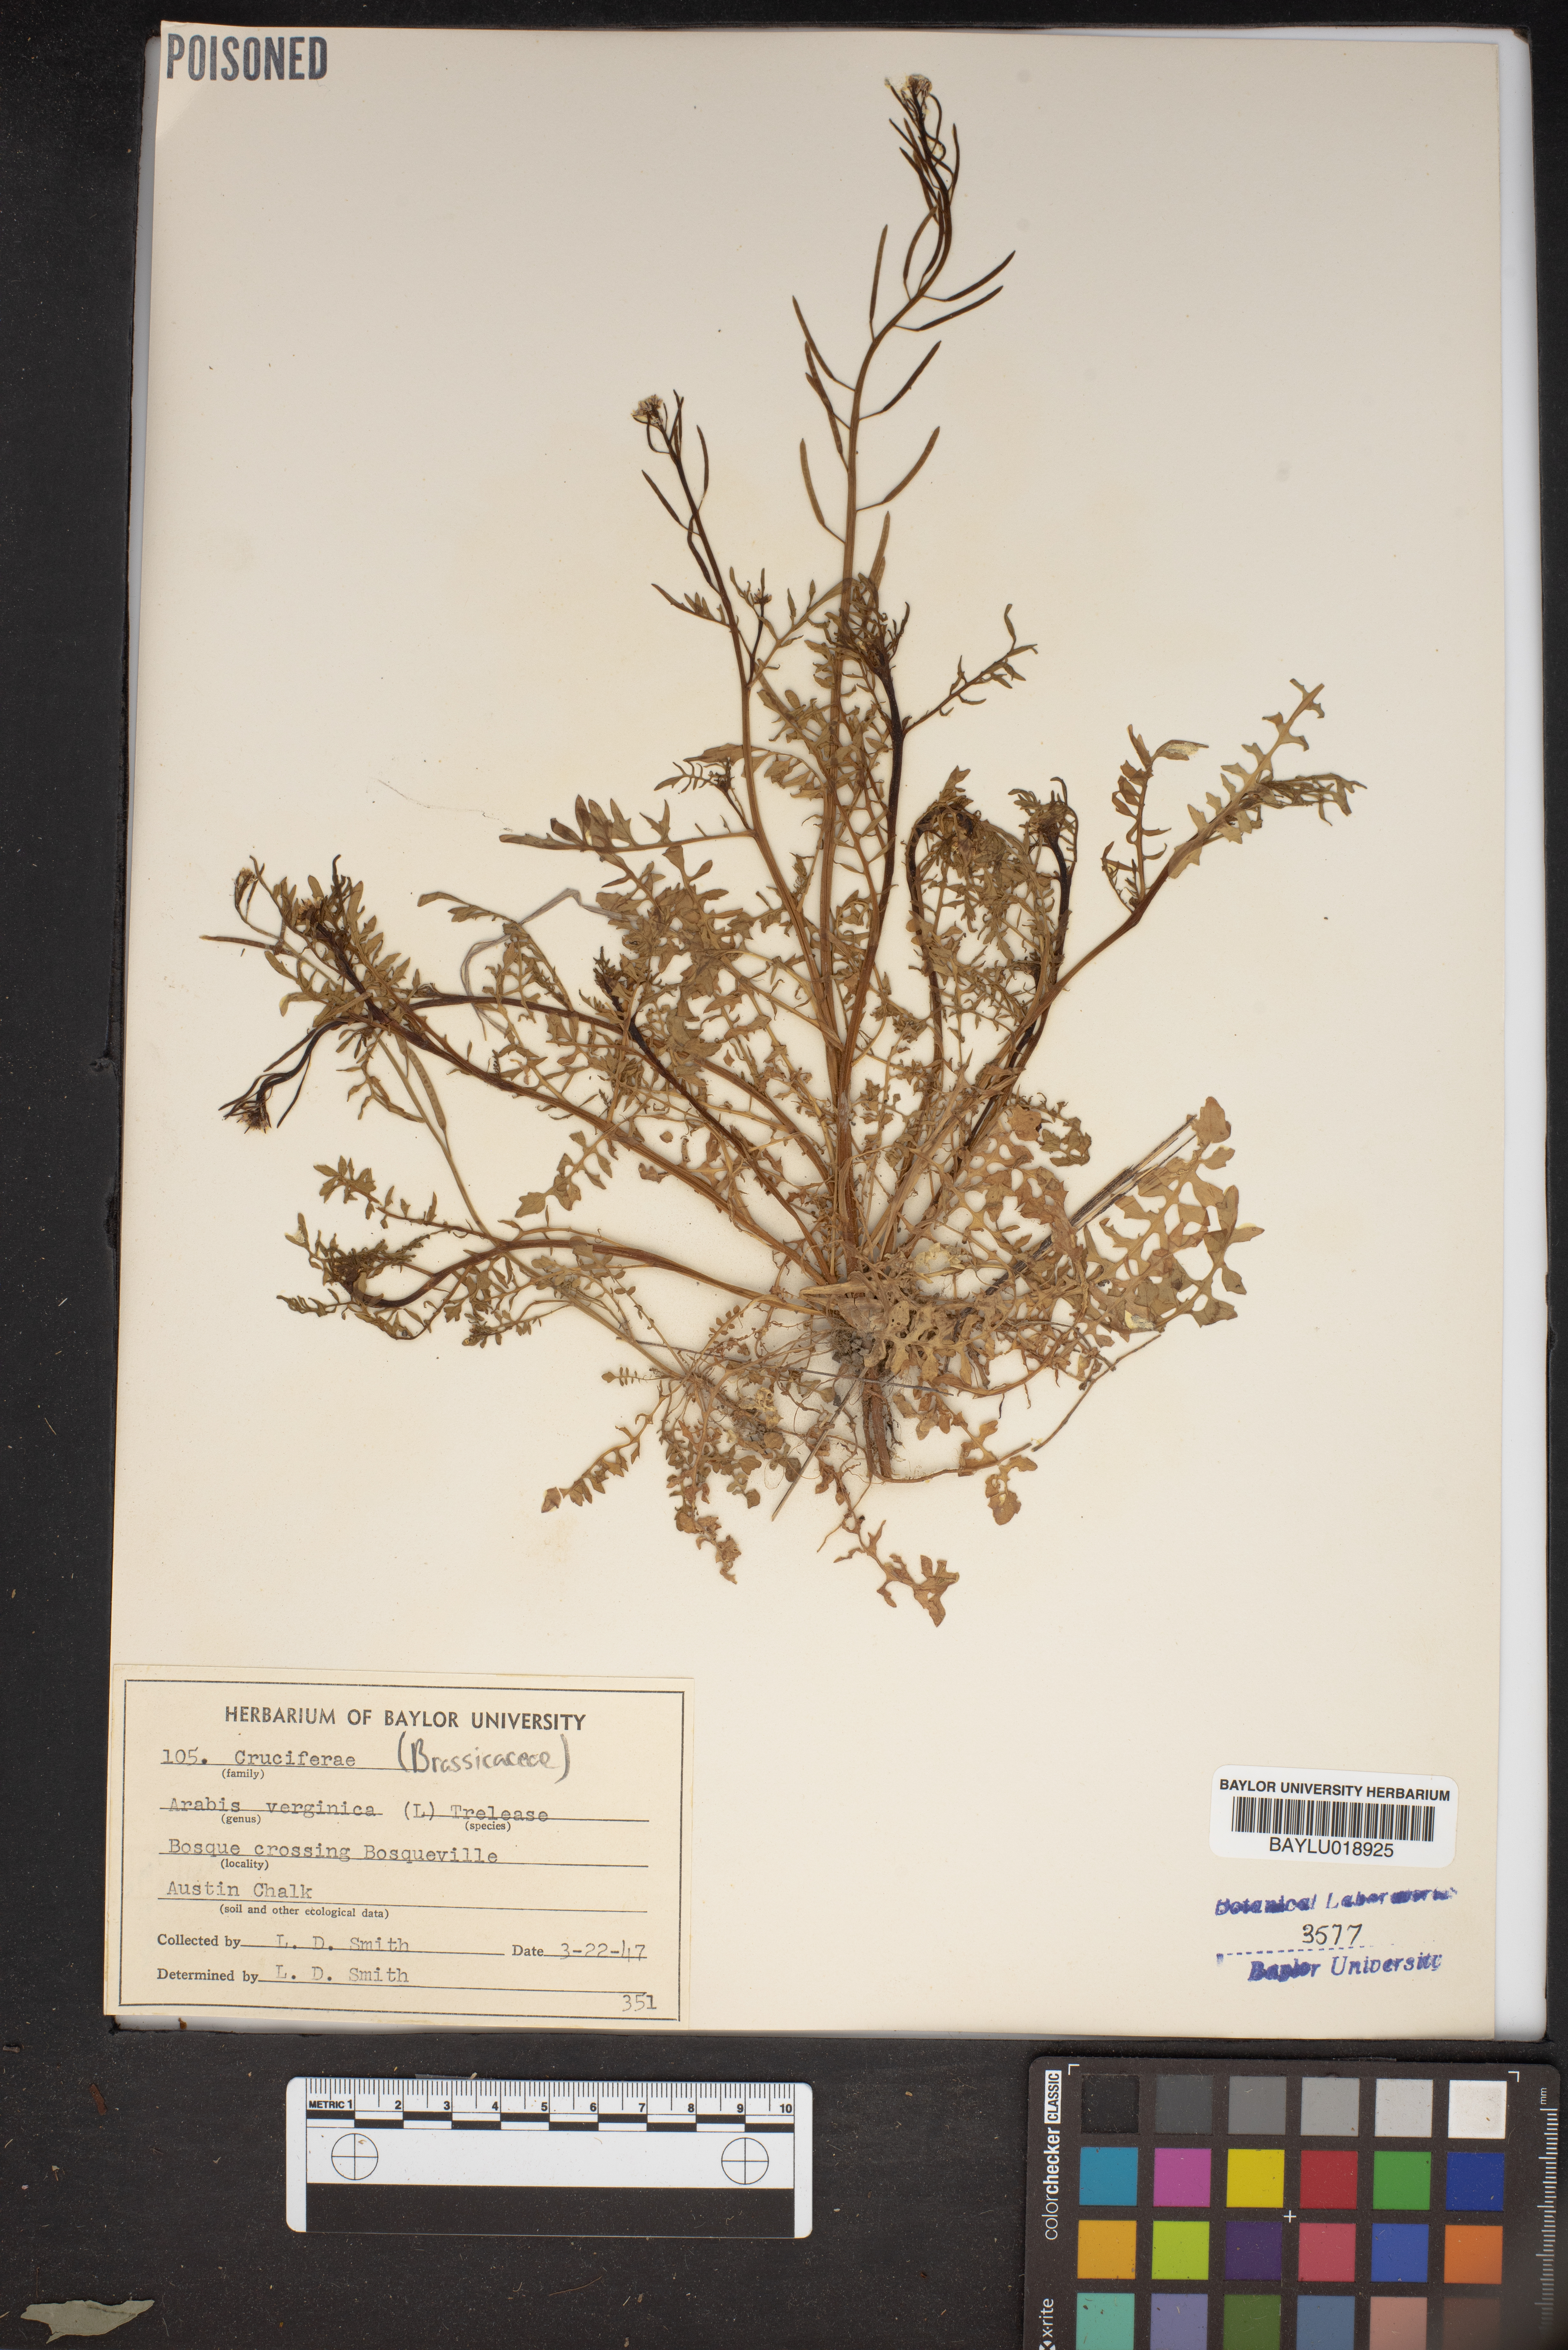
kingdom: Plantae
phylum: Tracheophyta
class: Magnoliopsida
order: Brassicales
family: Brassicaceae
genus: Planodes
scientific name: Planodes virginicum
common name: Virginia cress
